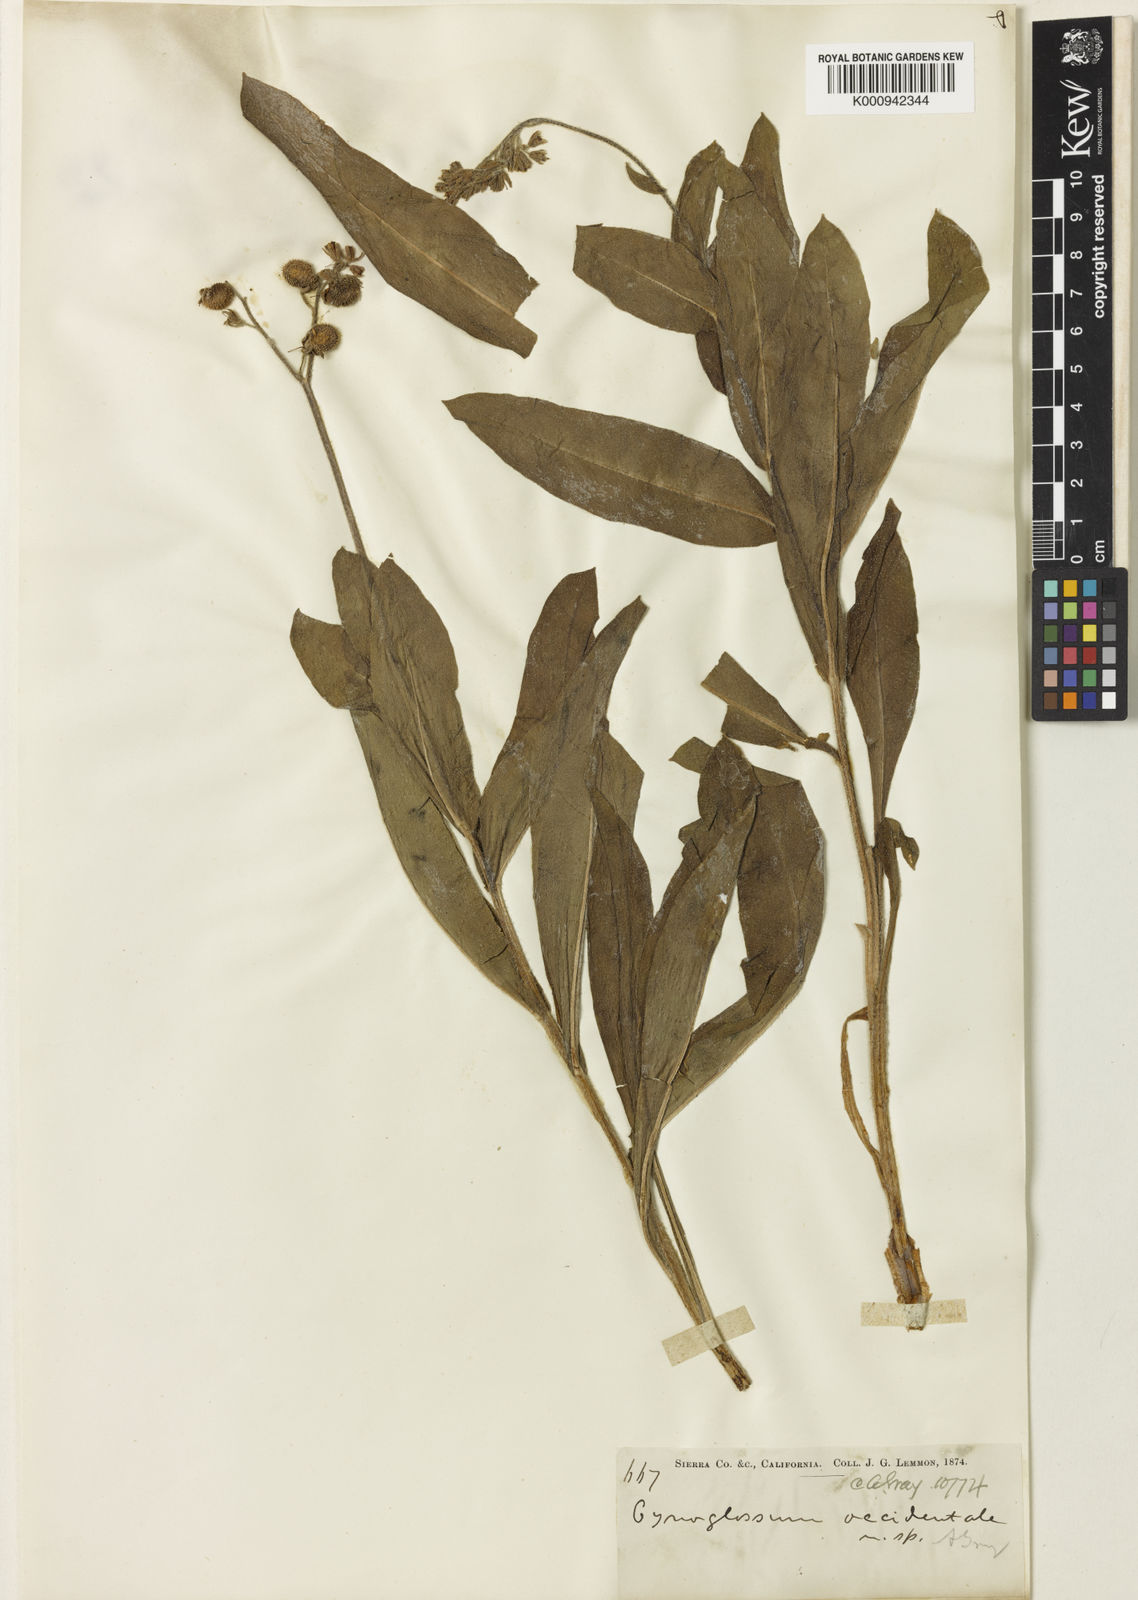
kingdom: Plantae
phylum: Tracheophyta
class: Magnoliopsida
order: Boraginales
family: Boraginaceae
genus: Andersonglossum
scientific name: Andersonglossum occidentale
